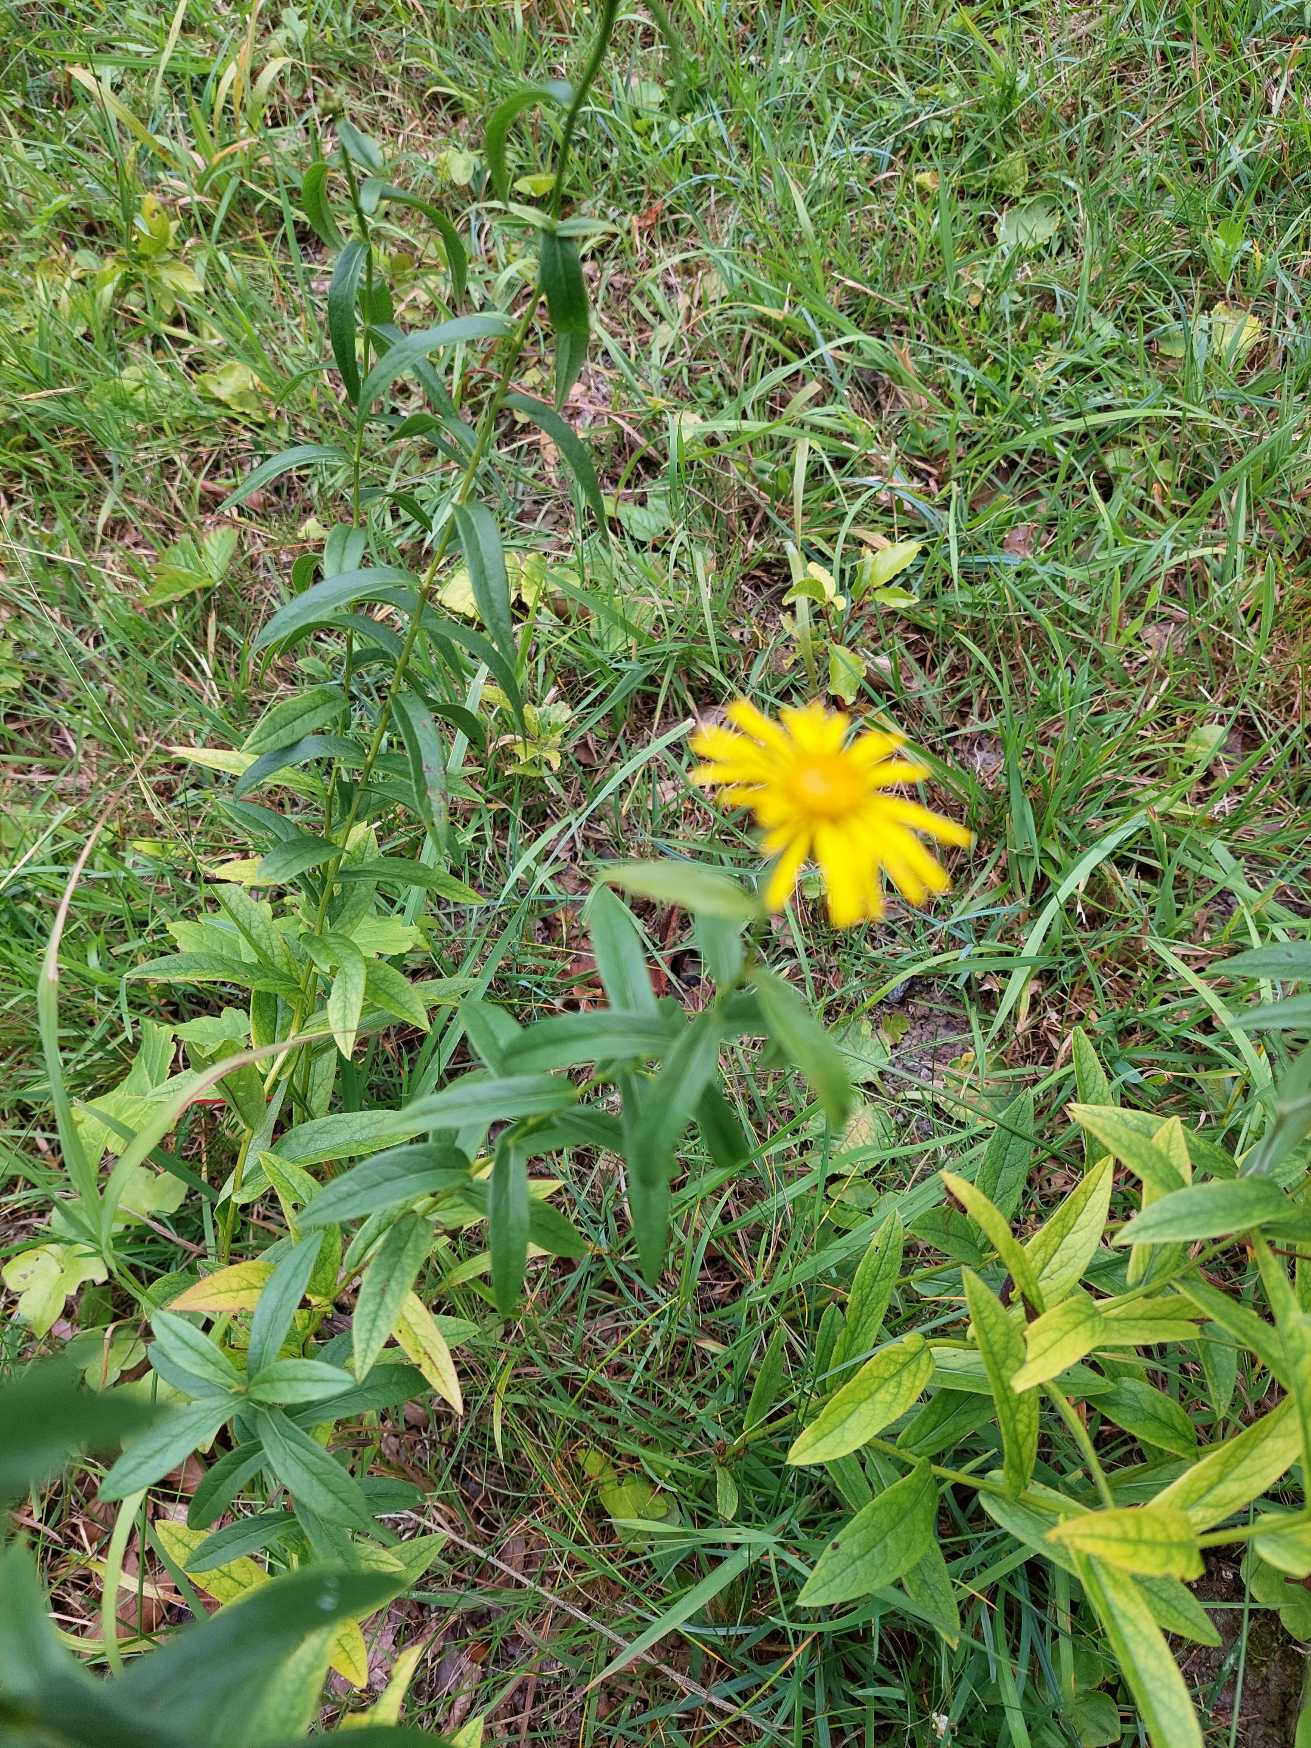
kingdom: Plantae
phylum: Tracheophyta
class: Magnoliopsida
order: Asterales
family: Asteraceae
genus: Pentanema
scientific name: Pentanema salicinum
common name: Pile-alant
